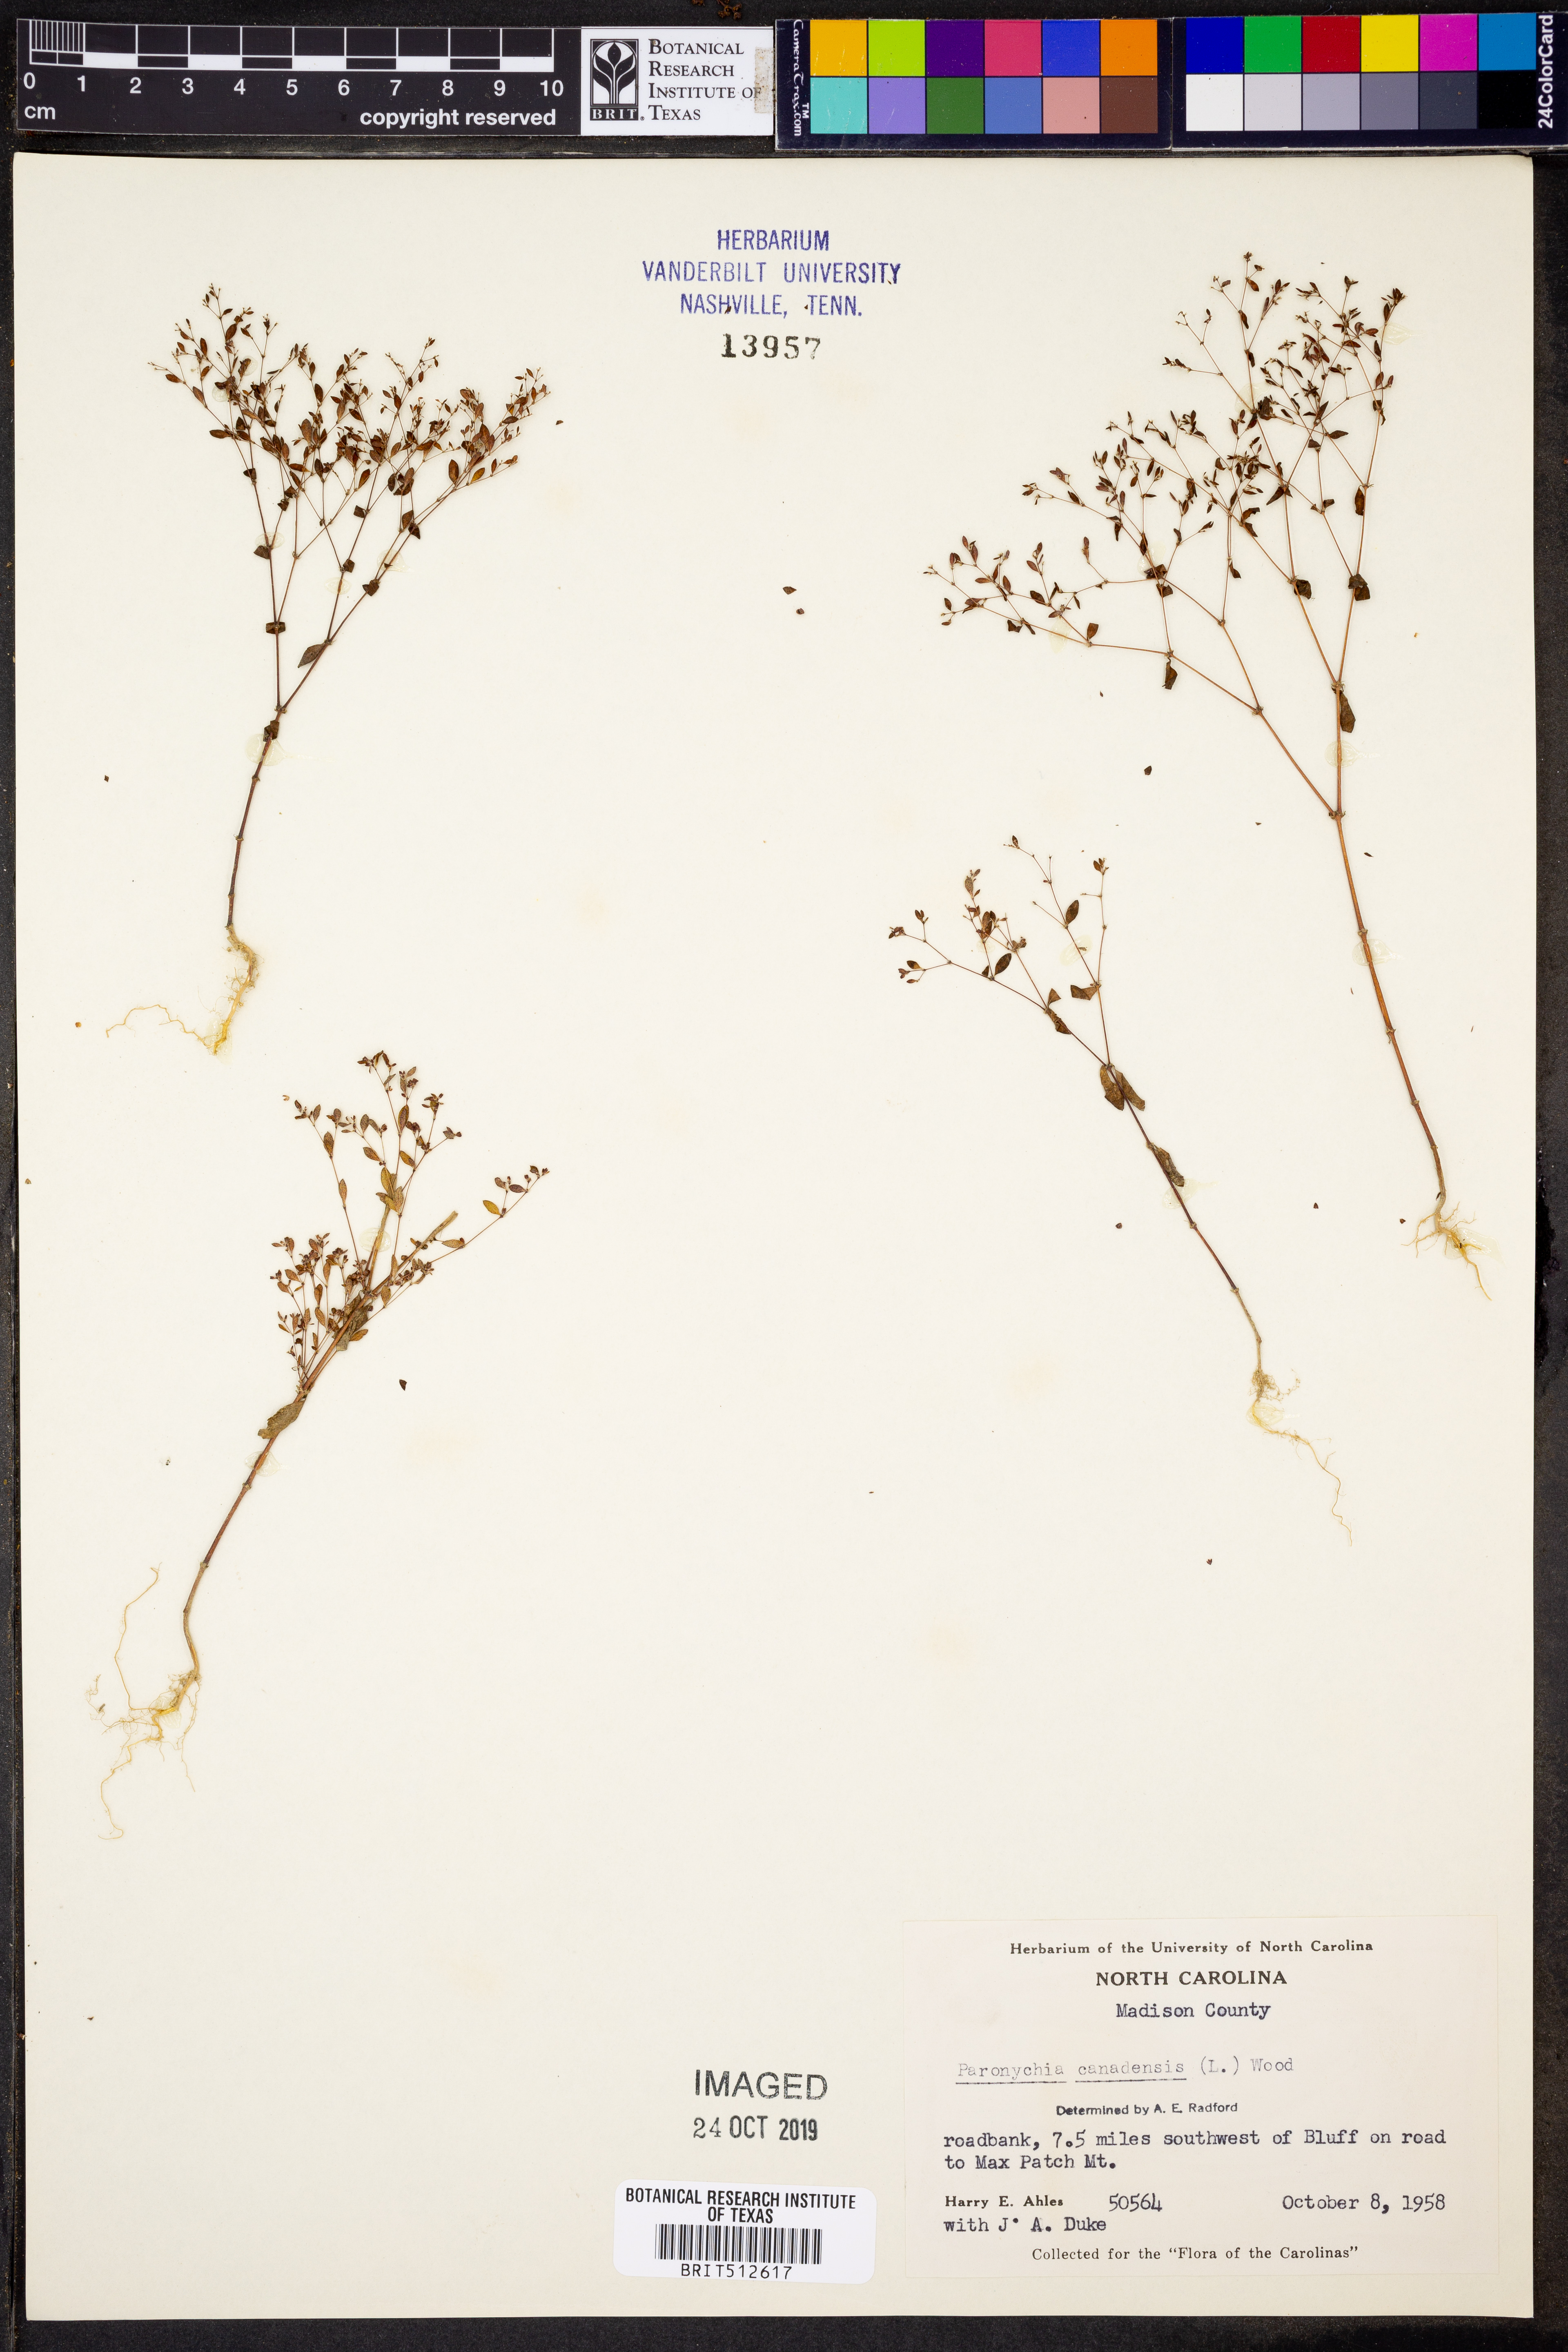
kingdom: Plantae
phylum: Tracheophyta
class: Magnoliopsida
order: Caryophyllales
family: Caryophyllaceae
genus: Paronychia
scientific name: Paronychia canadensis
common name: Canada forked nailwort
